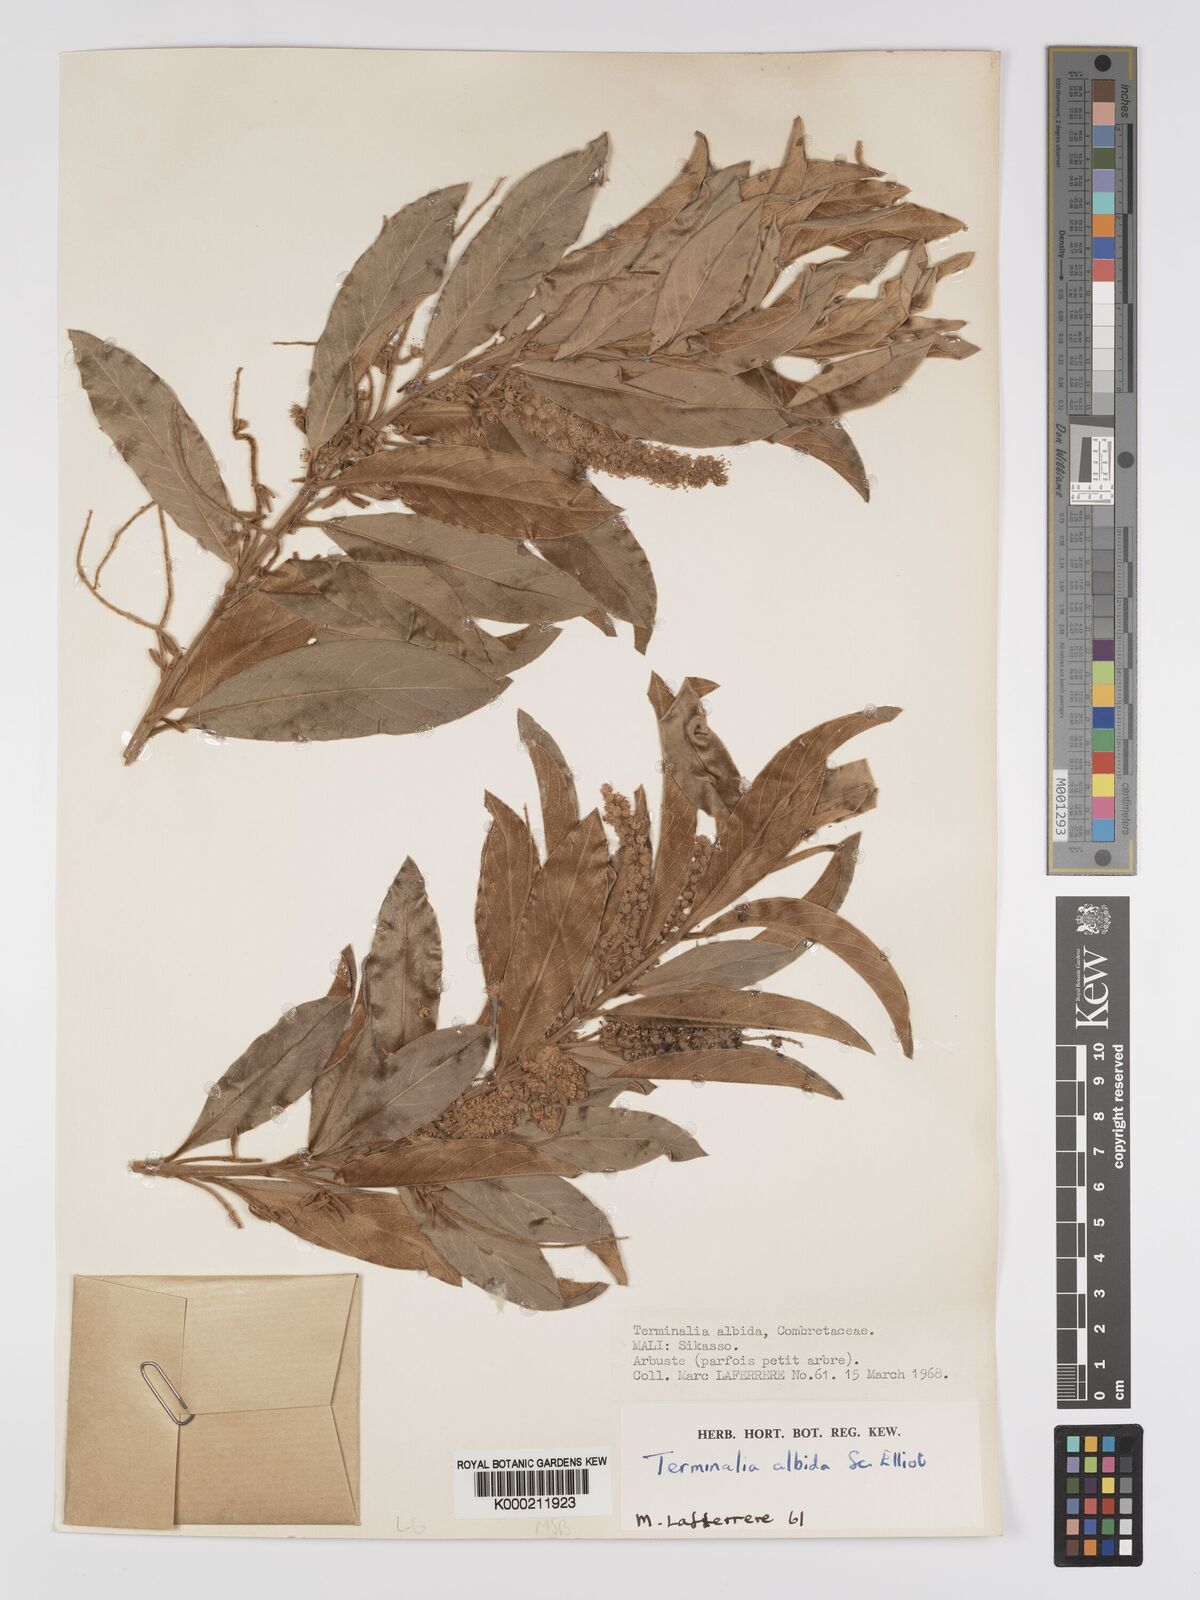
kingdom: Plantae
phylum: Tracheophyta
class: Magnoliopsida
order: Myrtales
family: Combretaceae
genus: Terminalia
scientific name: Terminalia albida
